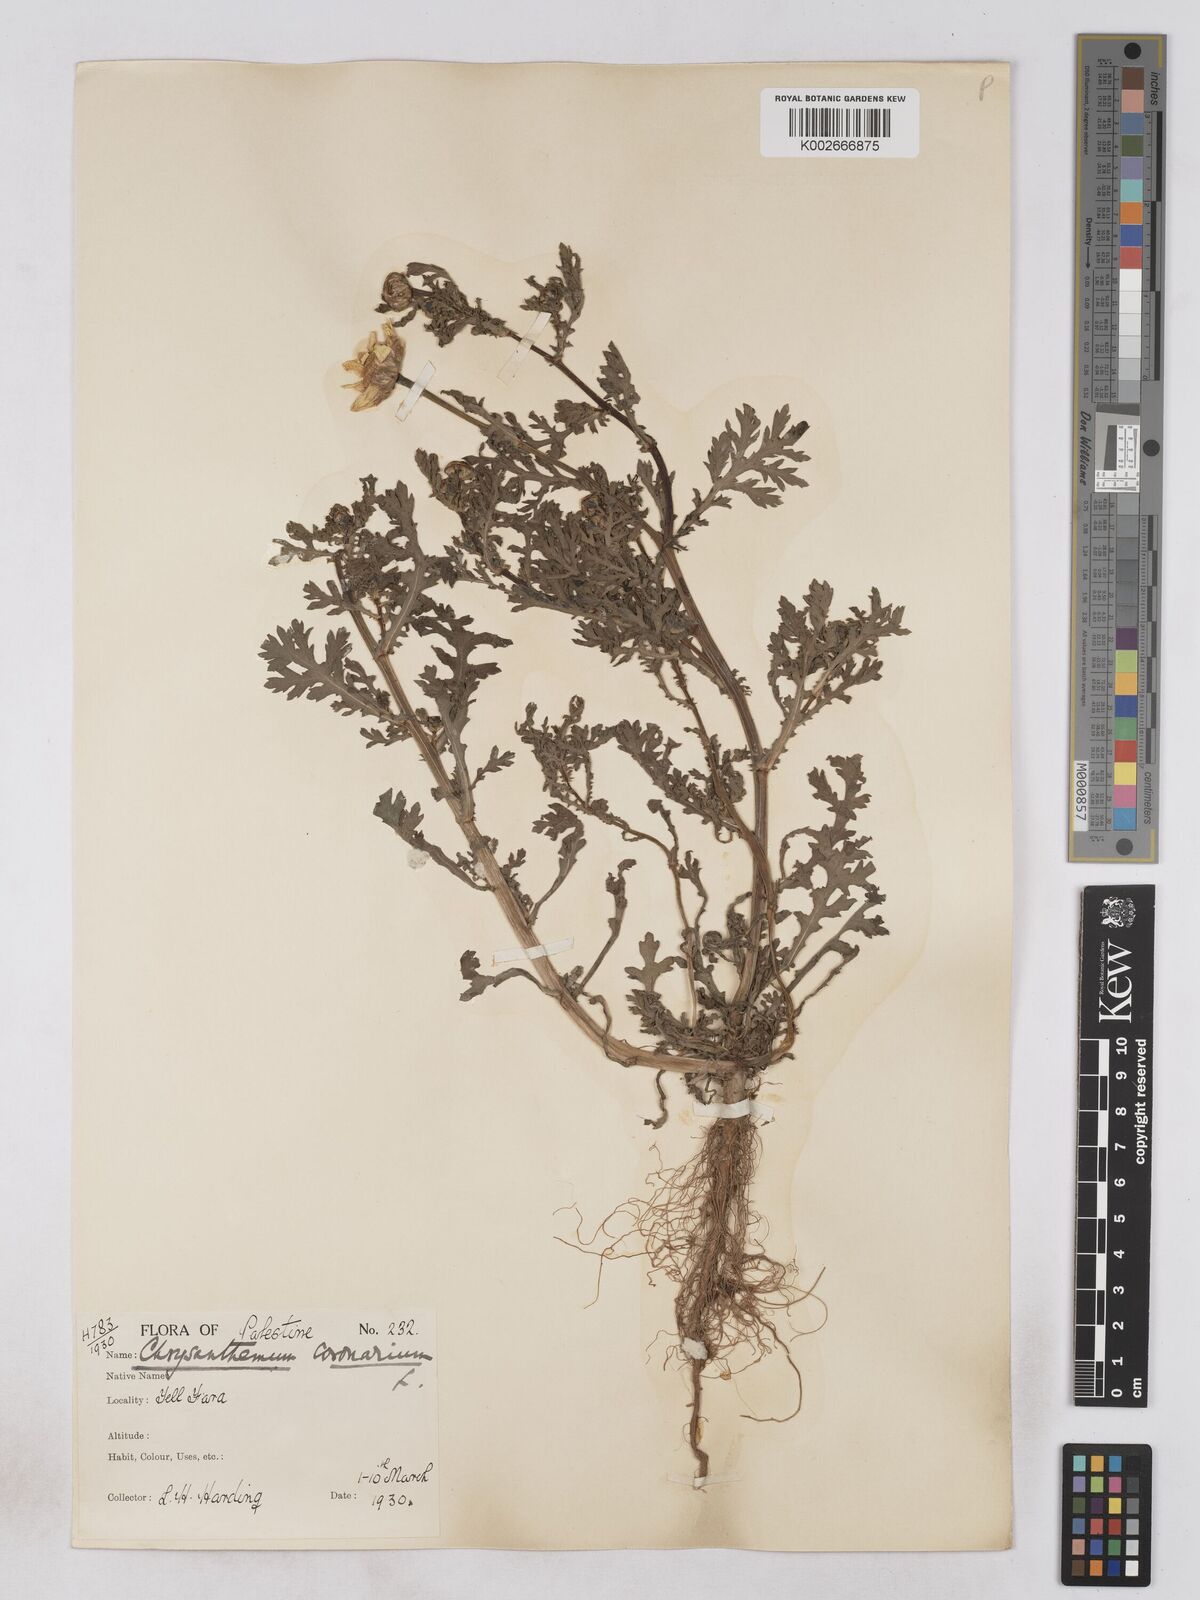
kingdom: Plantae
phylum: Tracheophyta
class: Magnoliopsida
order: Asterales
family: Asteraceae
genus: Glebionis
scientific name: Glebionis coronaria
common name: Crowndaisy
